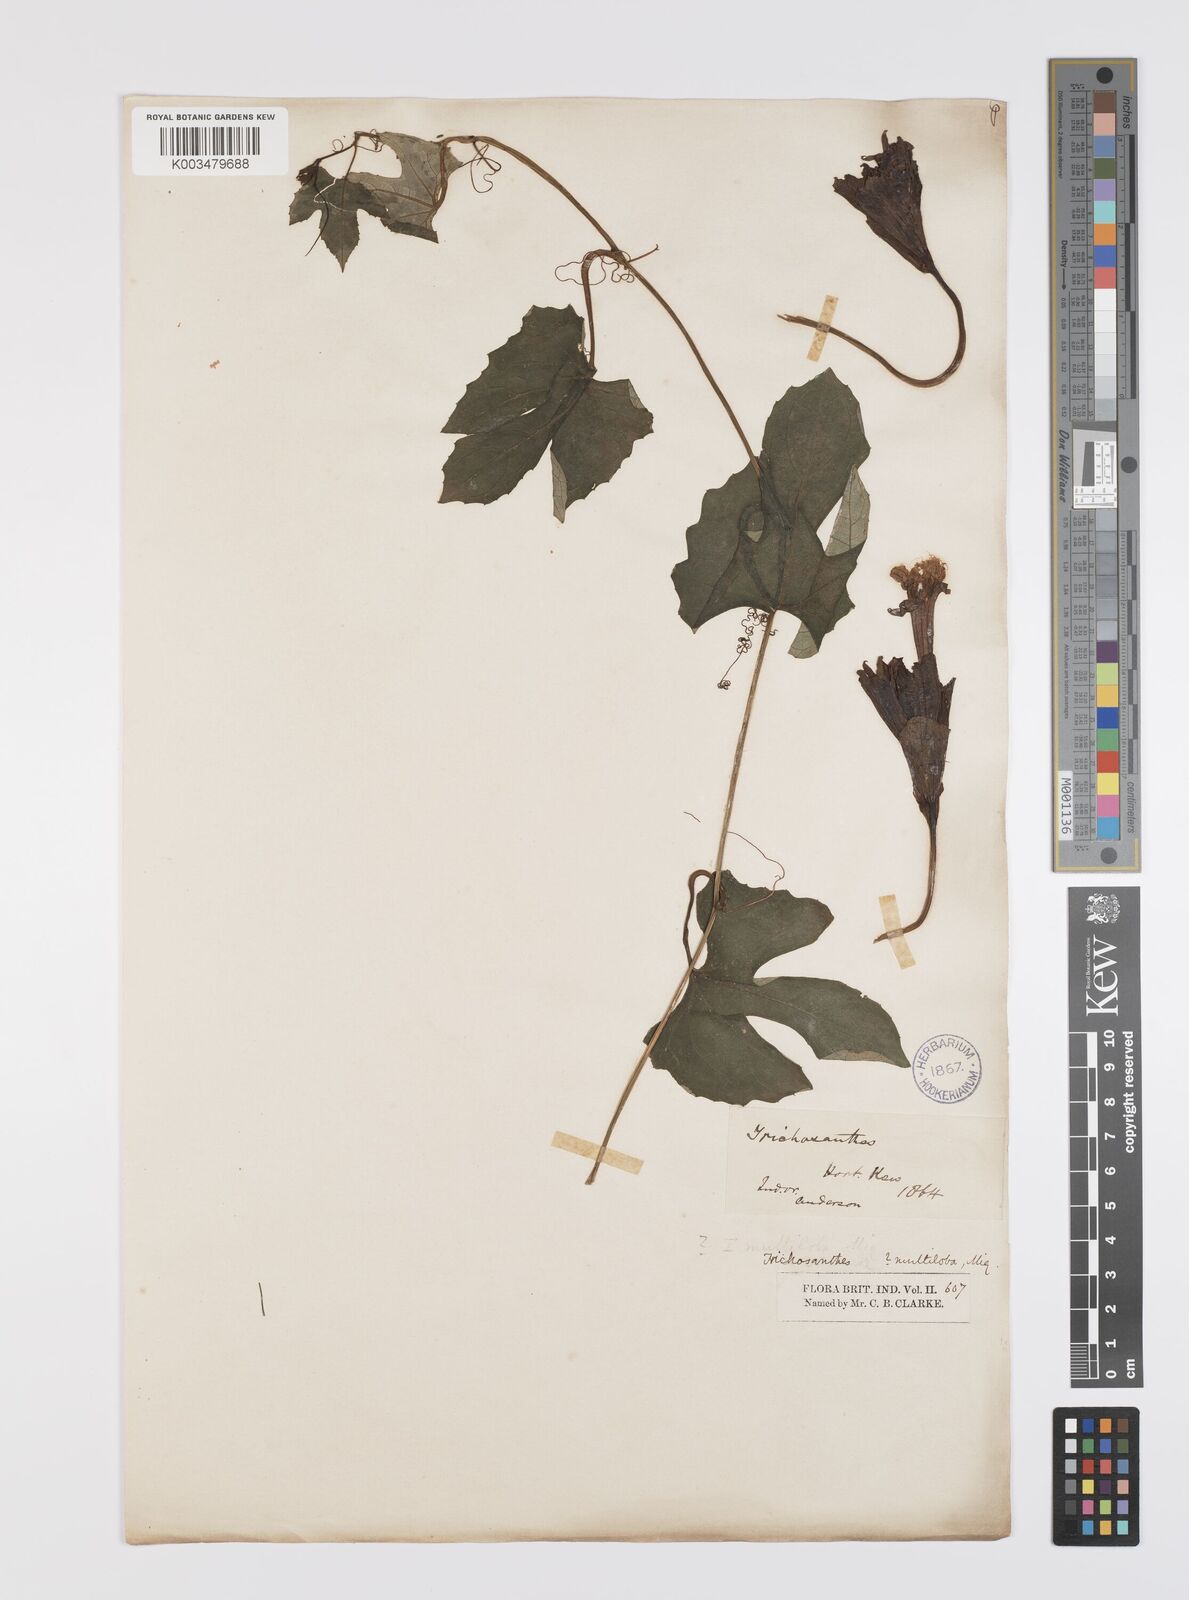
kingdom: Plantae
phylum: Tracheophyta
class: Magnoliopsida
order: Cucurbitales
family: Cucurbitaceae
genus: Trichosanthes
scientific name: Trichosanthes wallichiana
